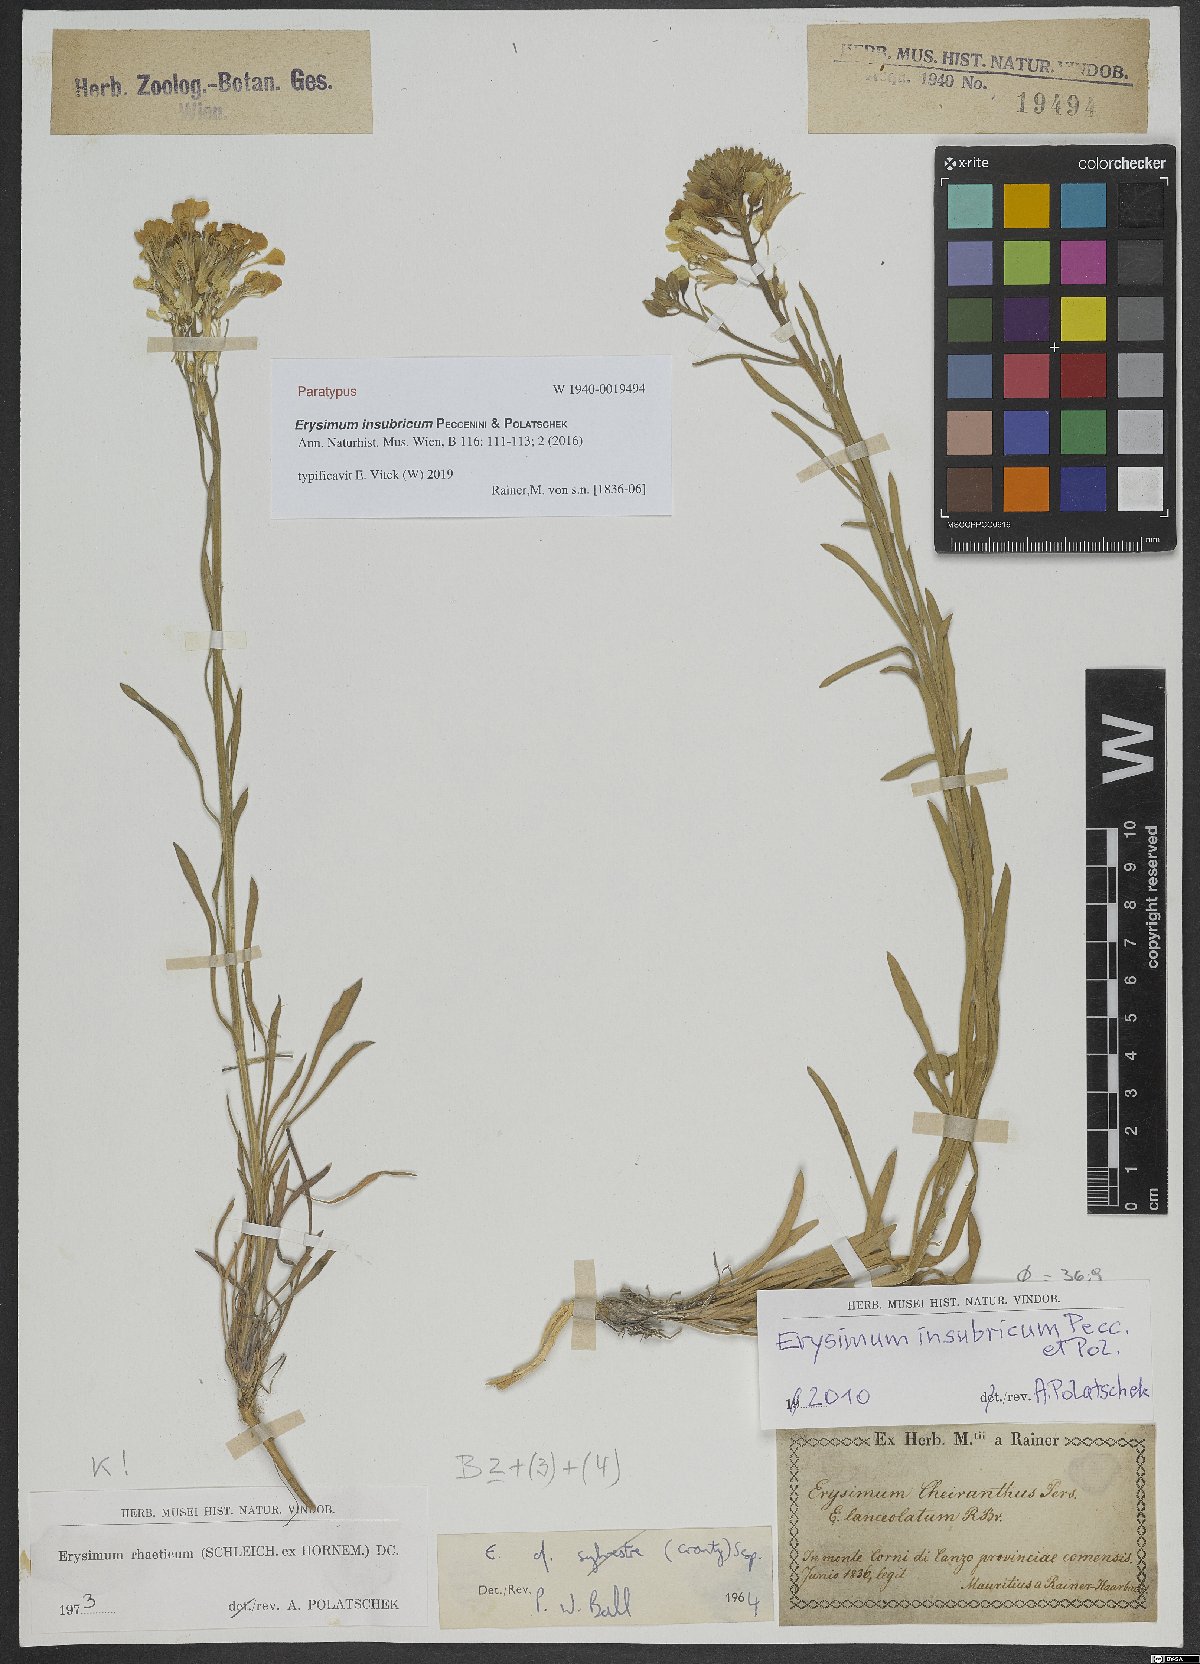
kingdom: Plantae
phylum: Tracheophyta
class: Magnoliopsida
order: Brassicales
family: Brassicaceae
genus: Erysimum
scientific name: Erysimum insubricum
